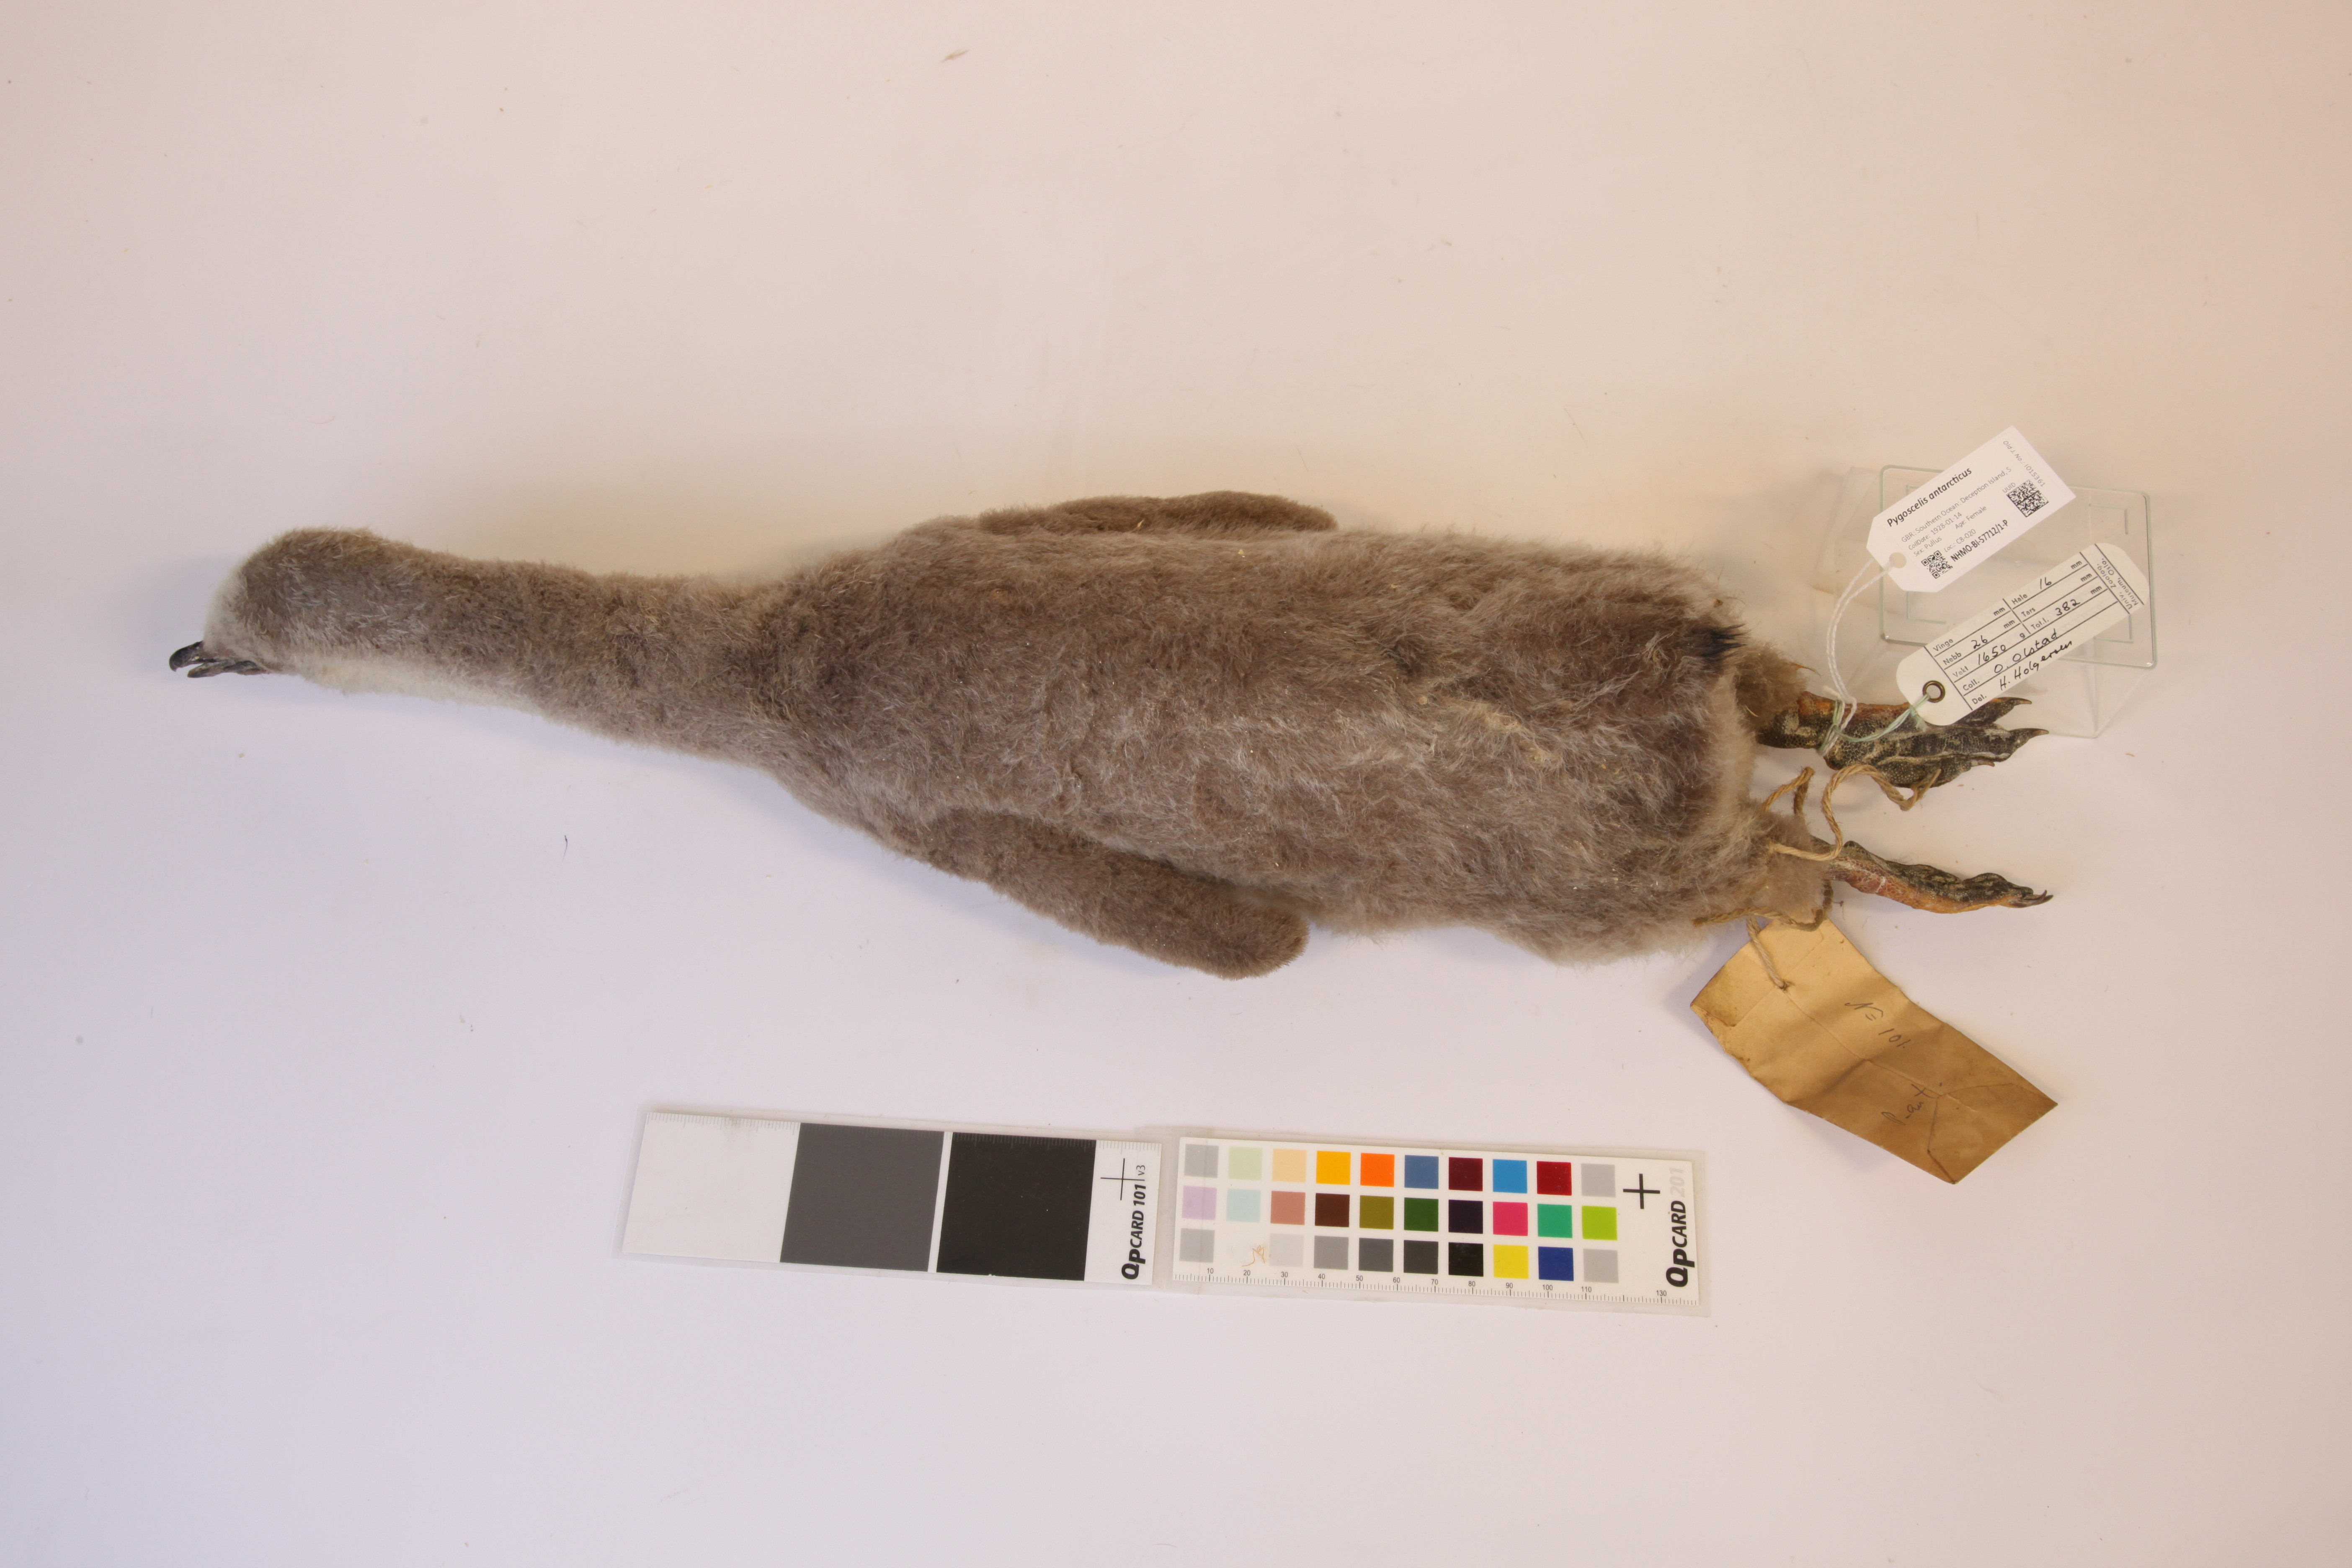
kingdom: Animalia
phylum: Chordata
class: Aves
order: Sphenisciformes
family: Spheniscidae
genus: Pygoscelis
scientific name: Pygoscelis antarcticus
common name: Chinstrap penguin
